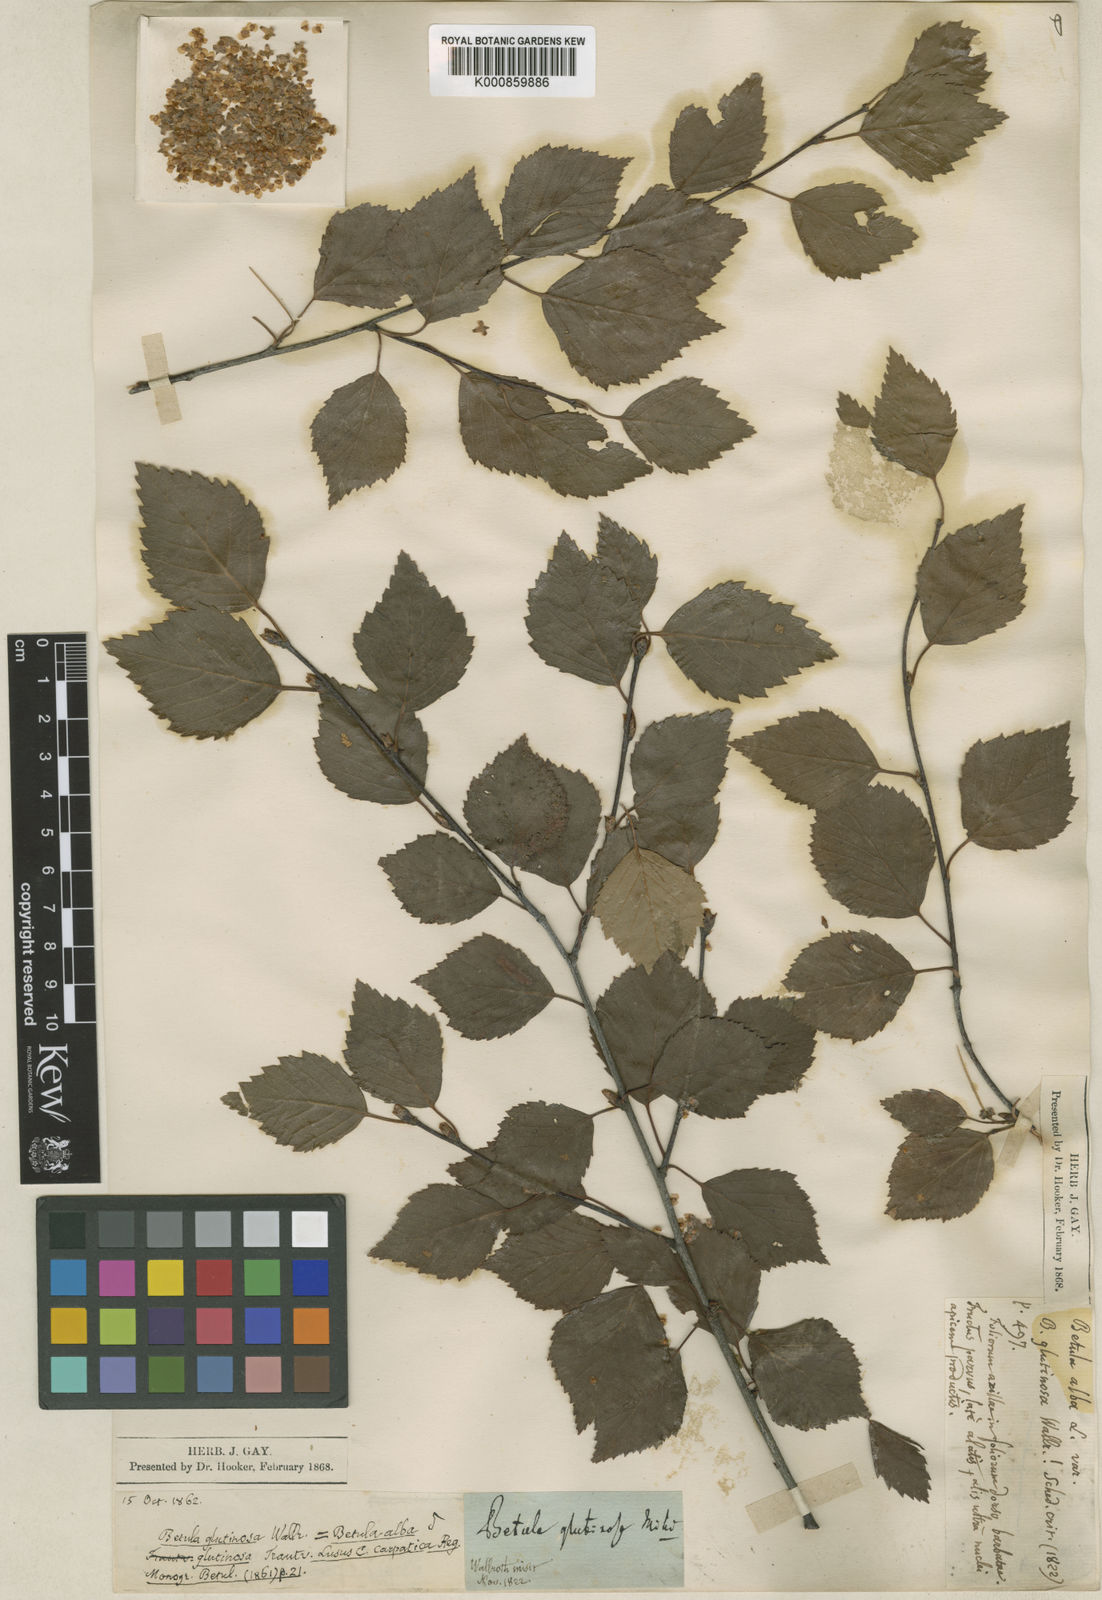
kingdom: Plantae
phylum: Tracheophyta
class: Magnoliopsida
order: Fagales
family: Betulaceae
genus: Betula
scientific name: Betula pubescens
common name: Downy birch
